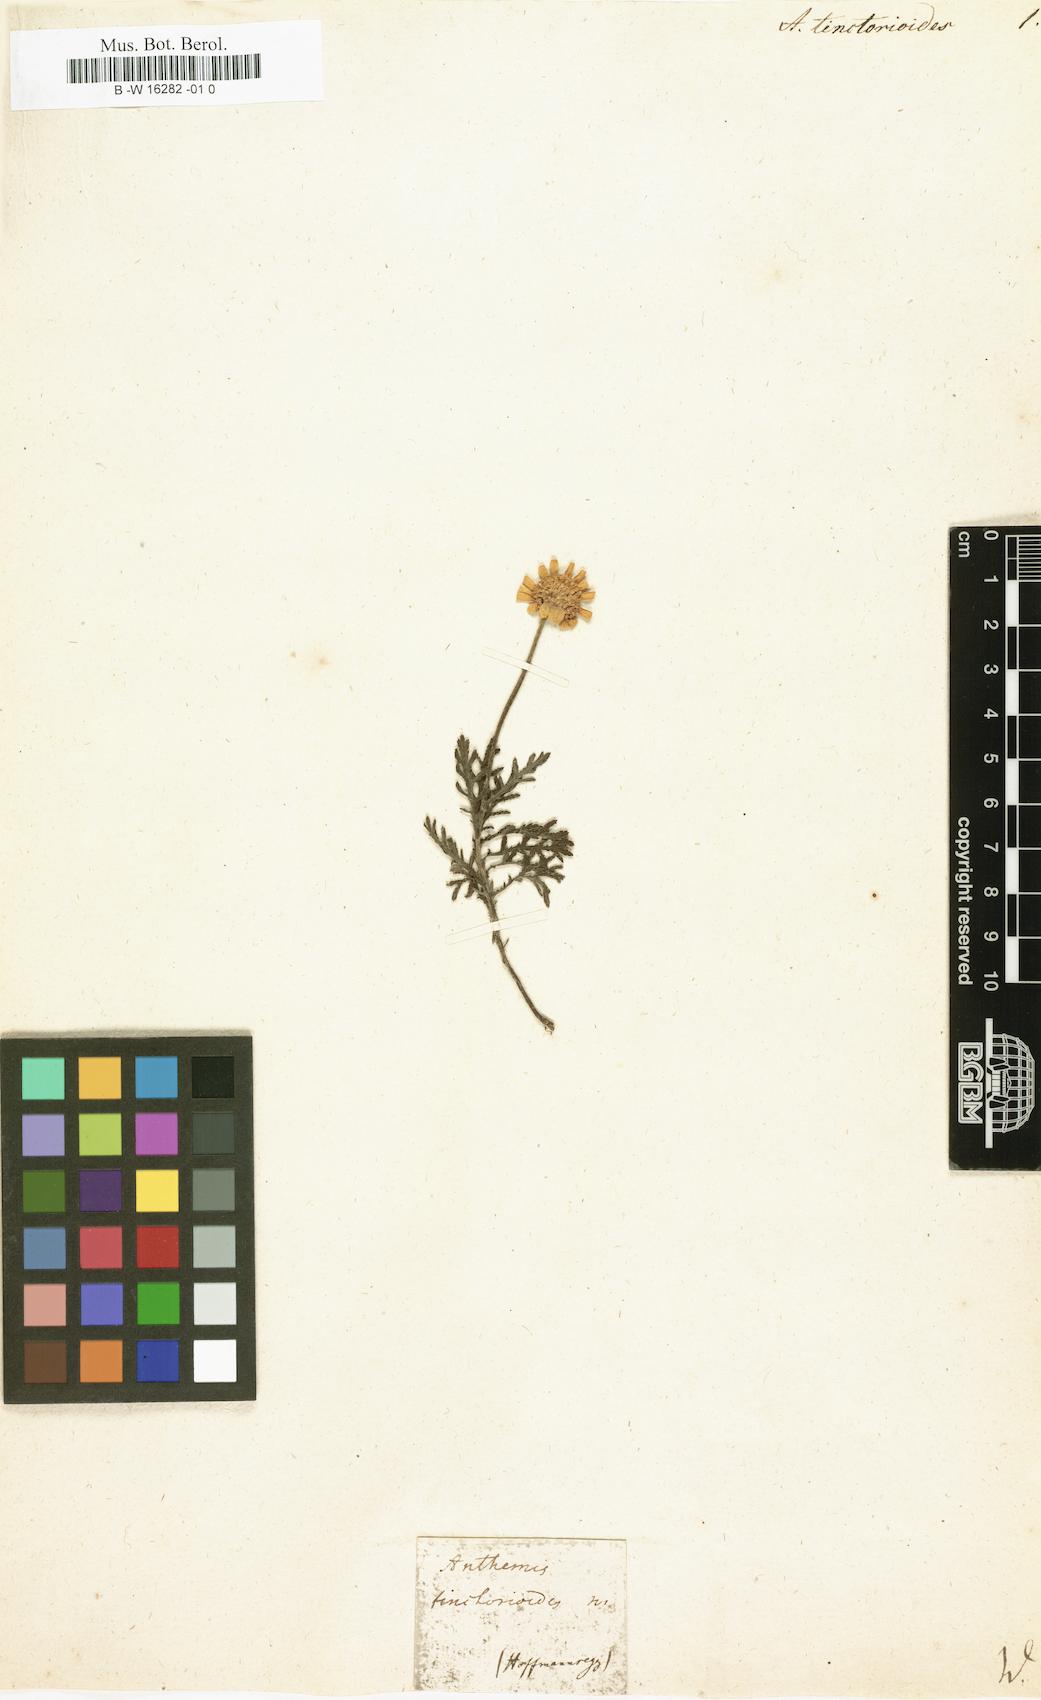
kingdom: Plantae
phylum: Tracheophyta
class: Magnoliopsida
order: Asterales
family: Asteraceae
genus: Anthemis
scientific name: Anthemis
